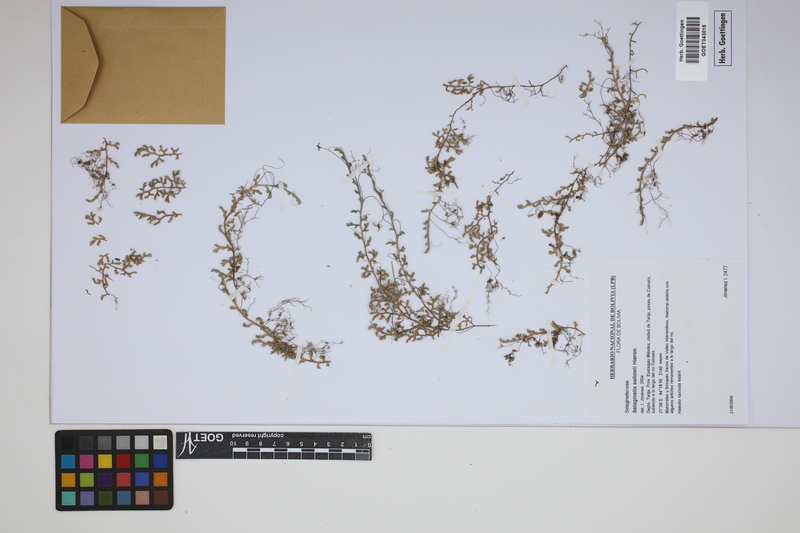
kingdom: Plantae
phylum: Tracheophyta
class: Lycopodiopsida
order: Selaginellales
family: Selaginellaceae
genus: Selaginella
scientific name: Selaginella sellowii
